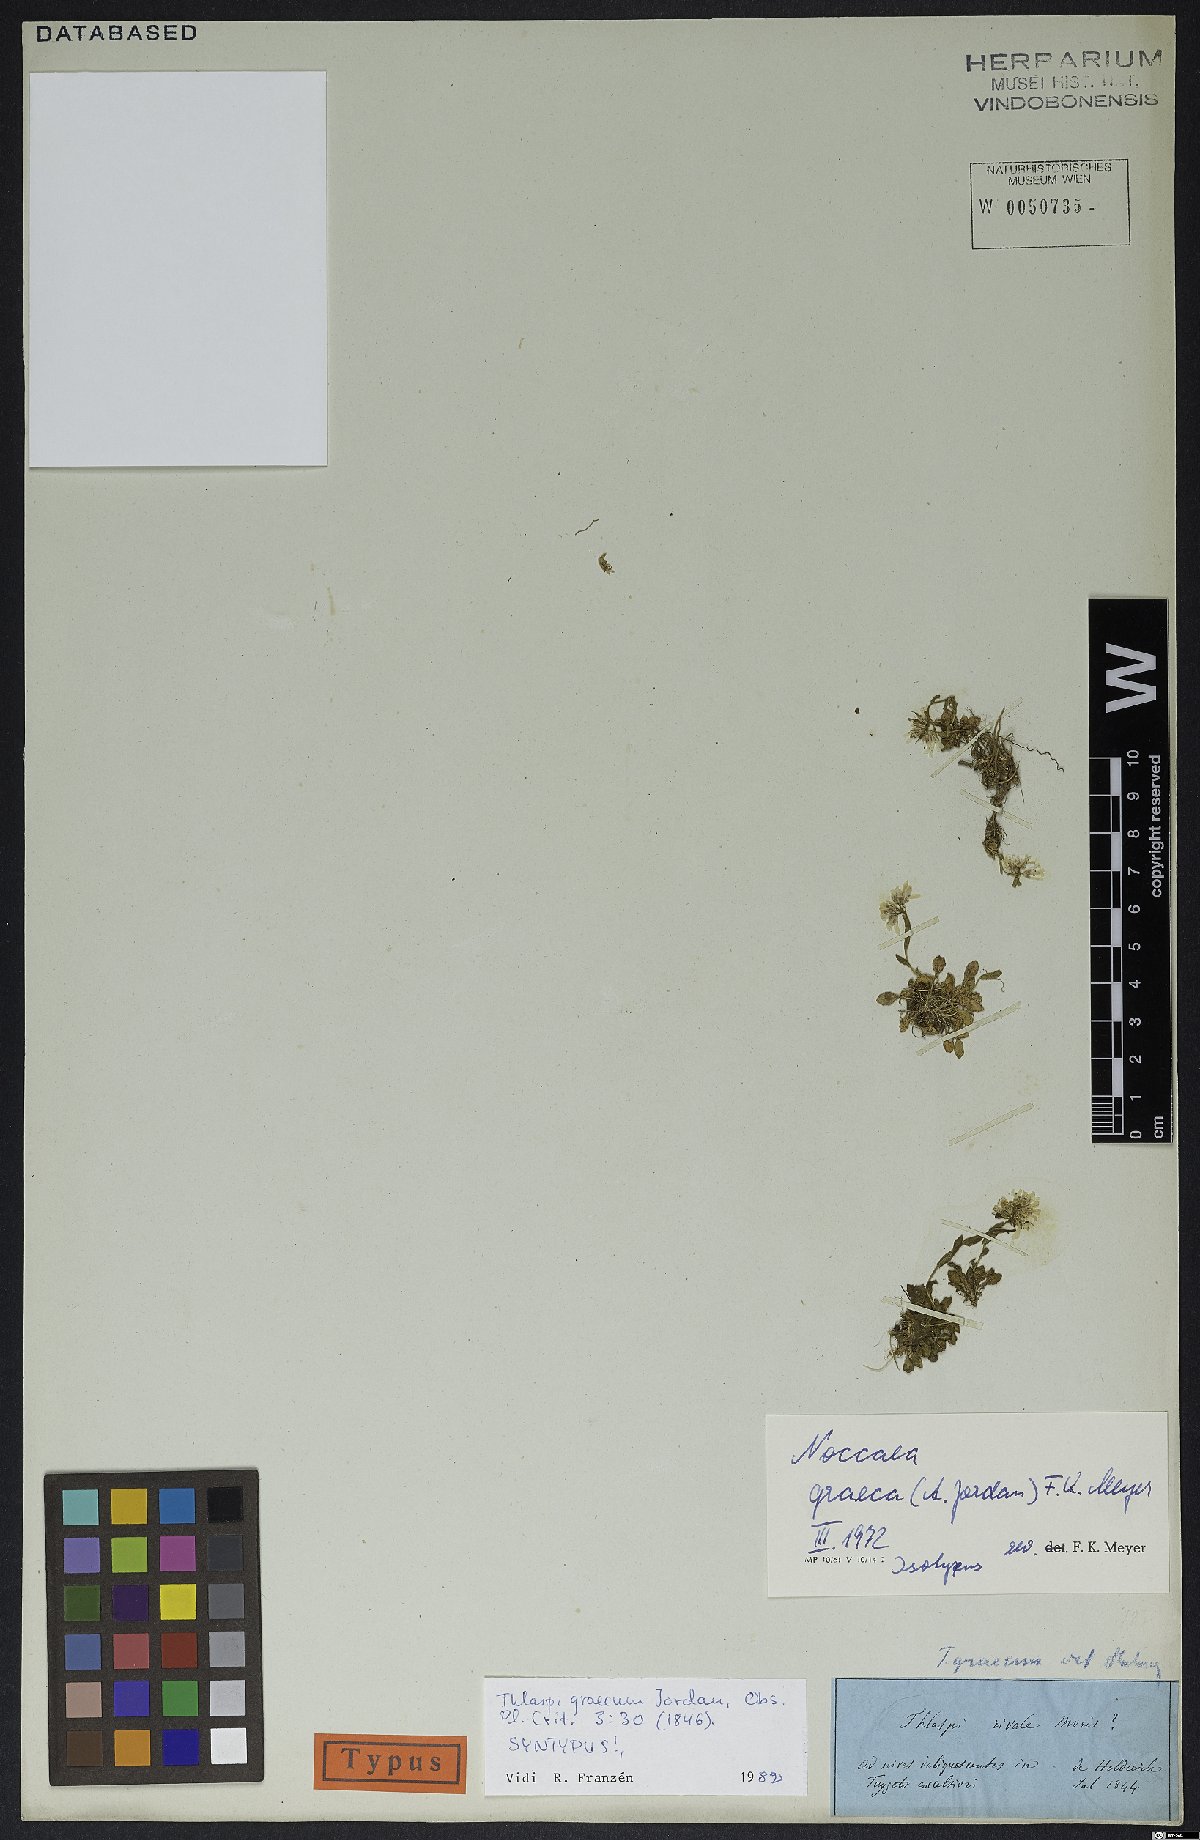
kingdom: Plantae
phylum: Tracheophyta
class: Magnoliopsida
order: Brassicales
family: Brassicaceae
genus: Noccaea
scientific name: Noccaea graeca
